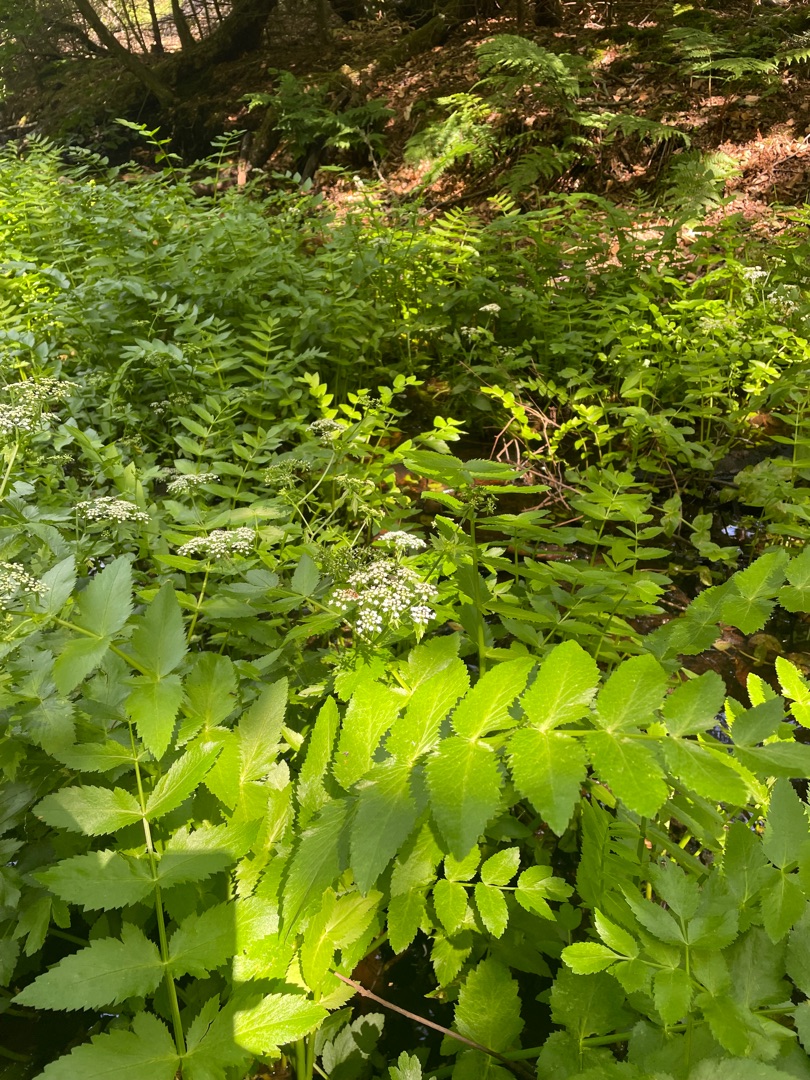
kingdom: Plantae
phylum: Tracheophyta
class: Magnoliopsida
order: Apiales
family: Apiaceae
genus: Berula
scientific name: Berula erecta
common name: Sideskærm
